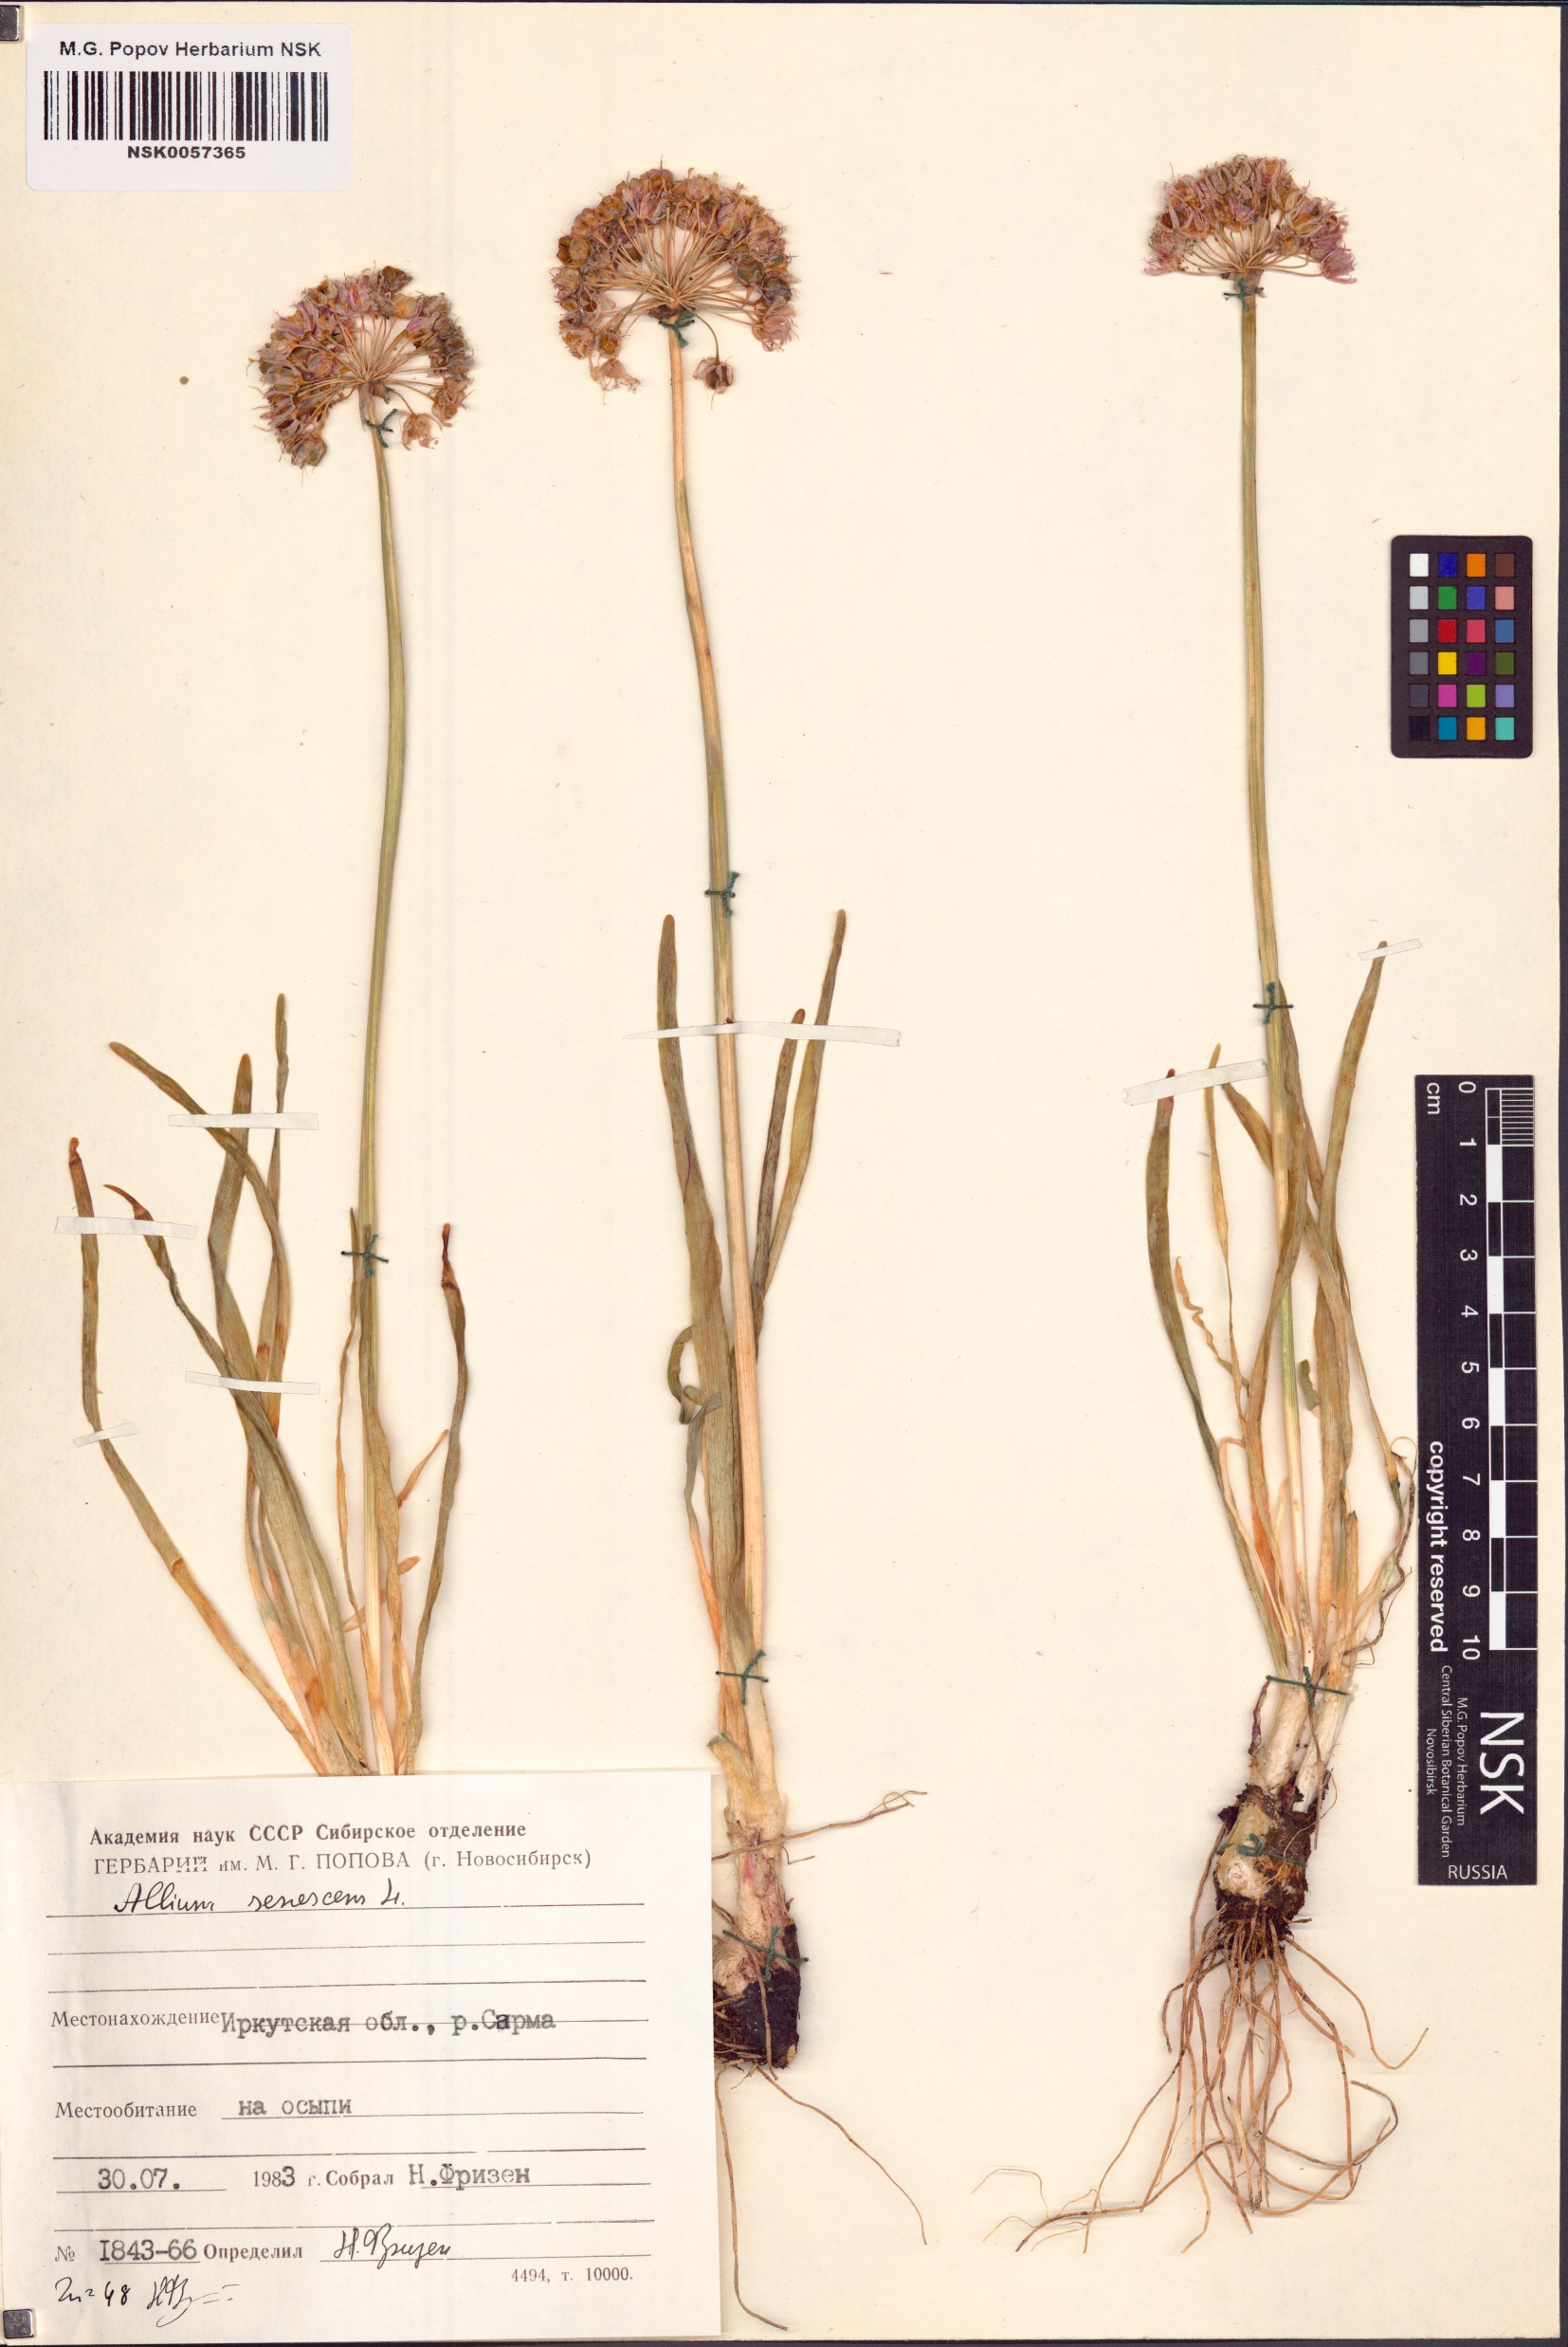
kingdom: Plantae
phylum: Tracheophyta
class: Liliopsida
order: Asparagales
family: Amaryllidaceae
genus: Allium
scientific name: Allium senescens
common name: German garlic
